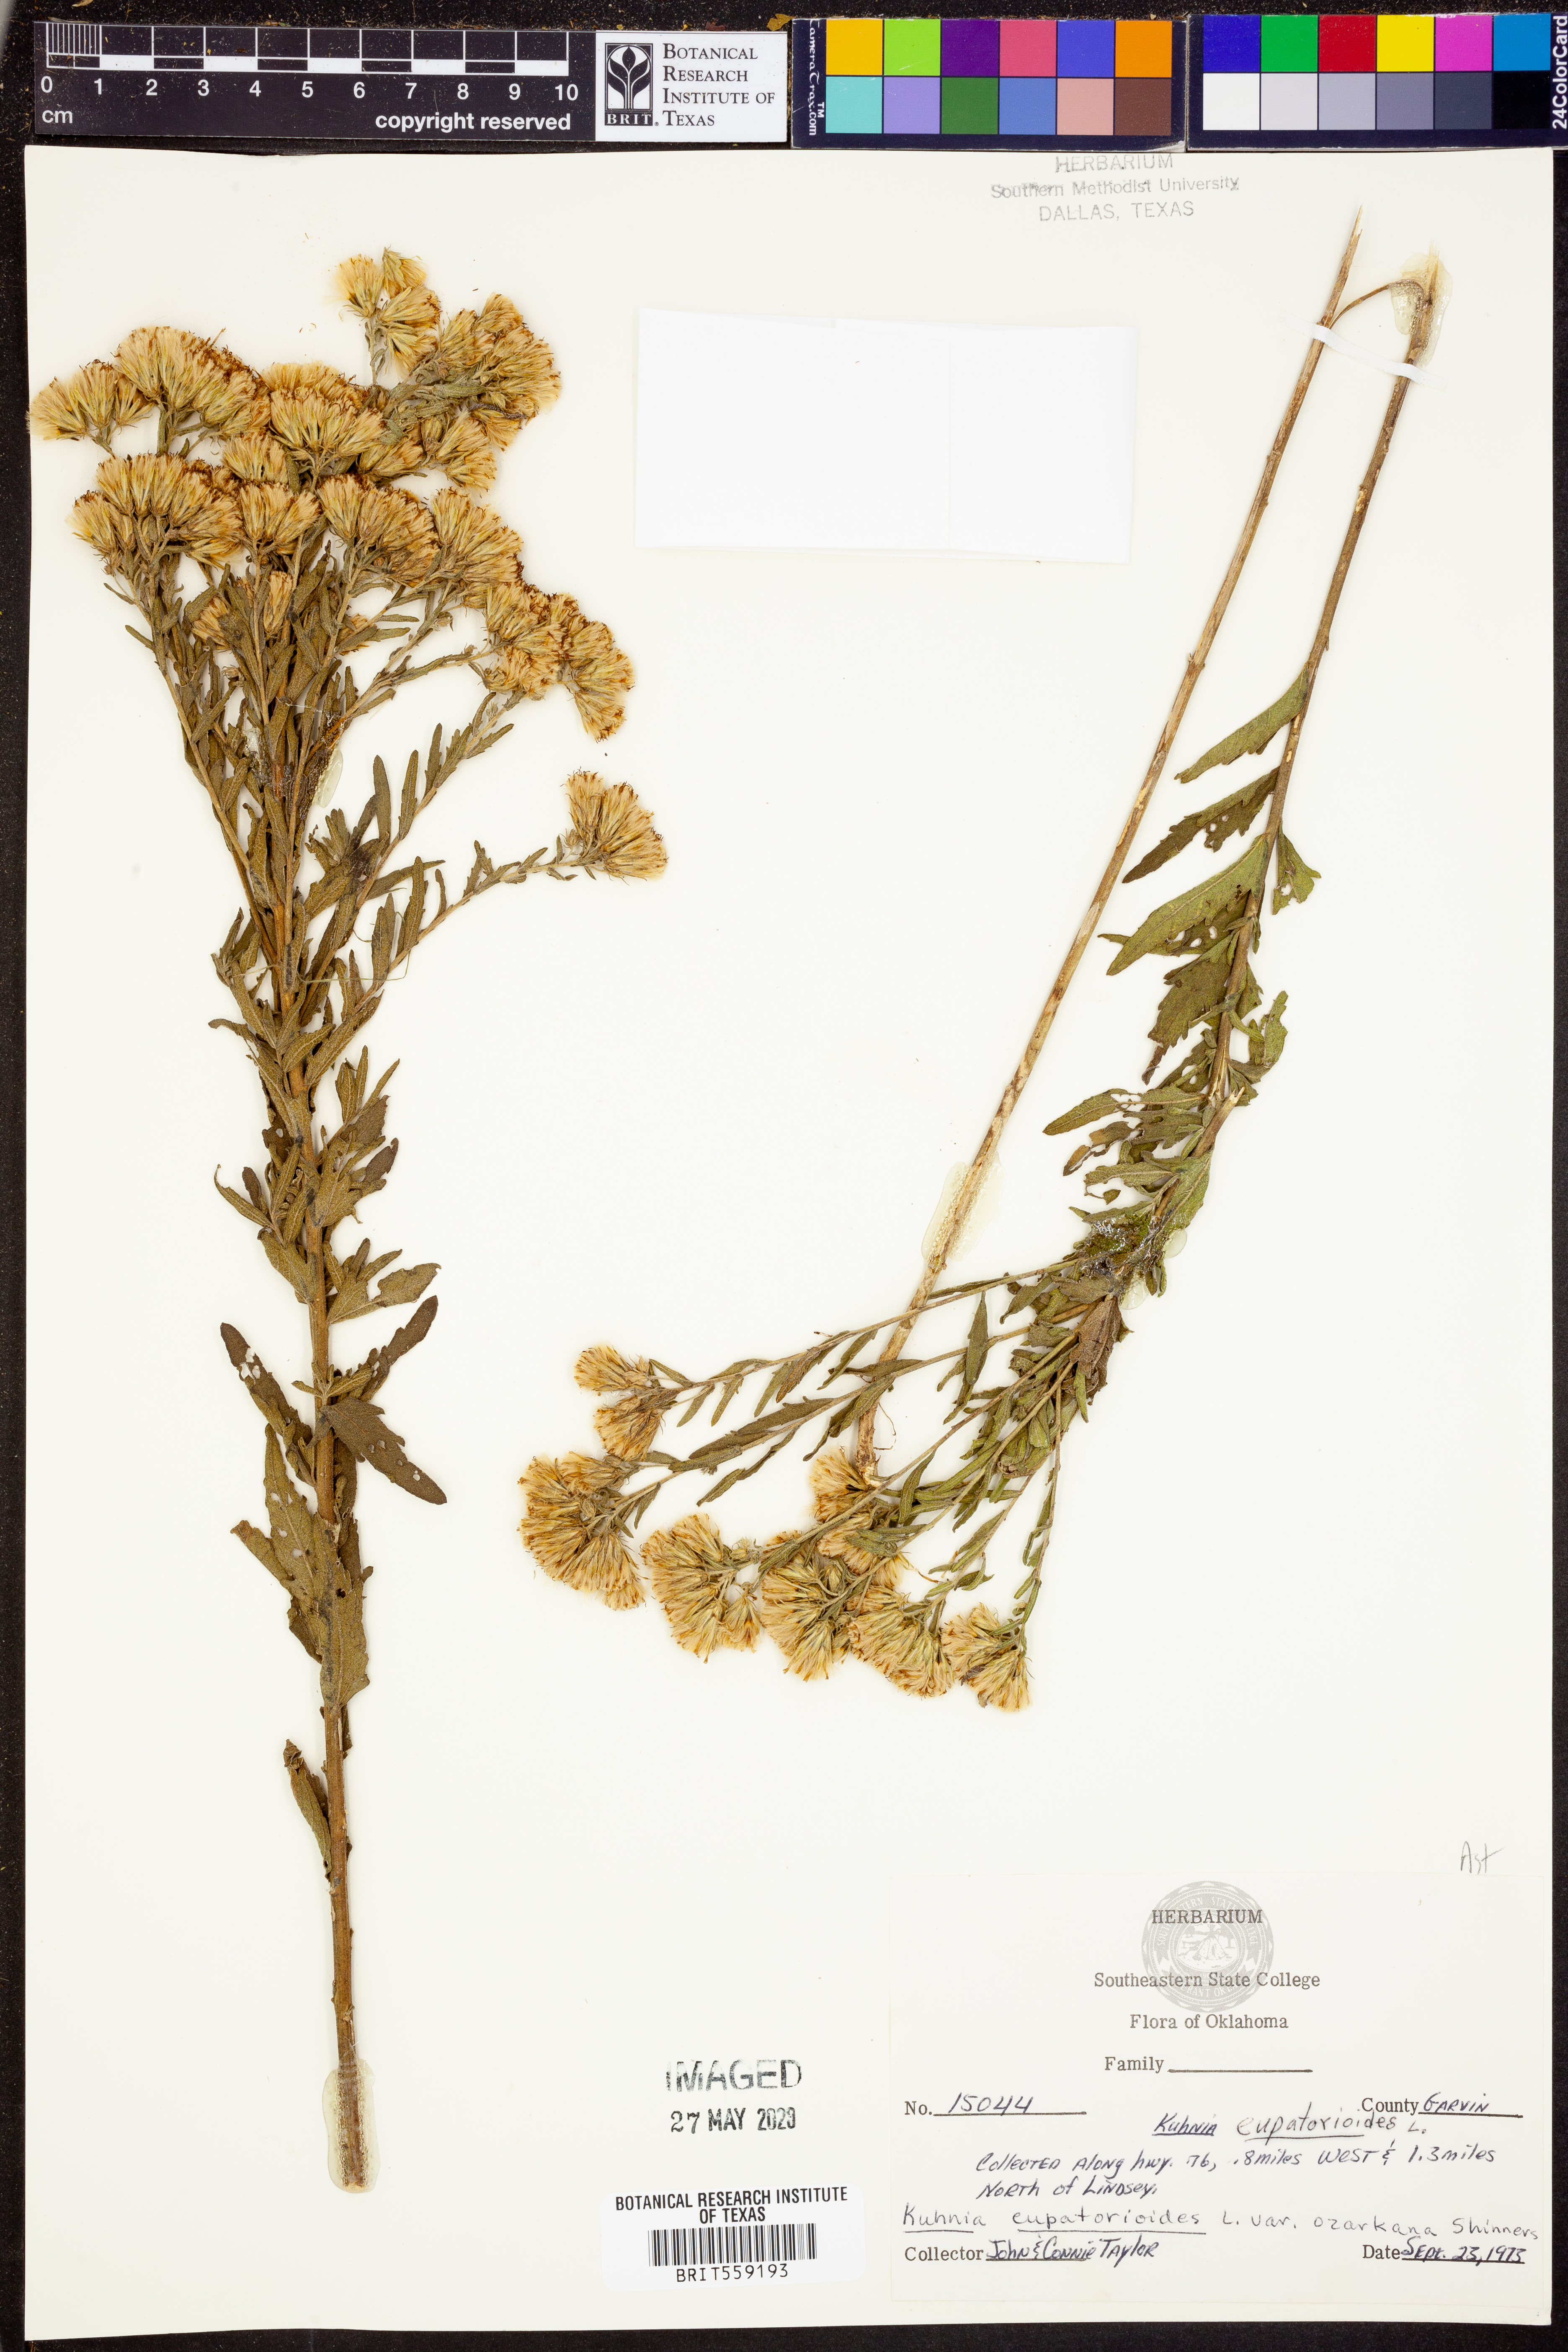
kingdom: Plantae
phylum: Tracheophyta
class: Magnoliopsida
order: Asterales
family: Asteraceae
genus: Brickellia
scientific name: Brickellia ozarkana
